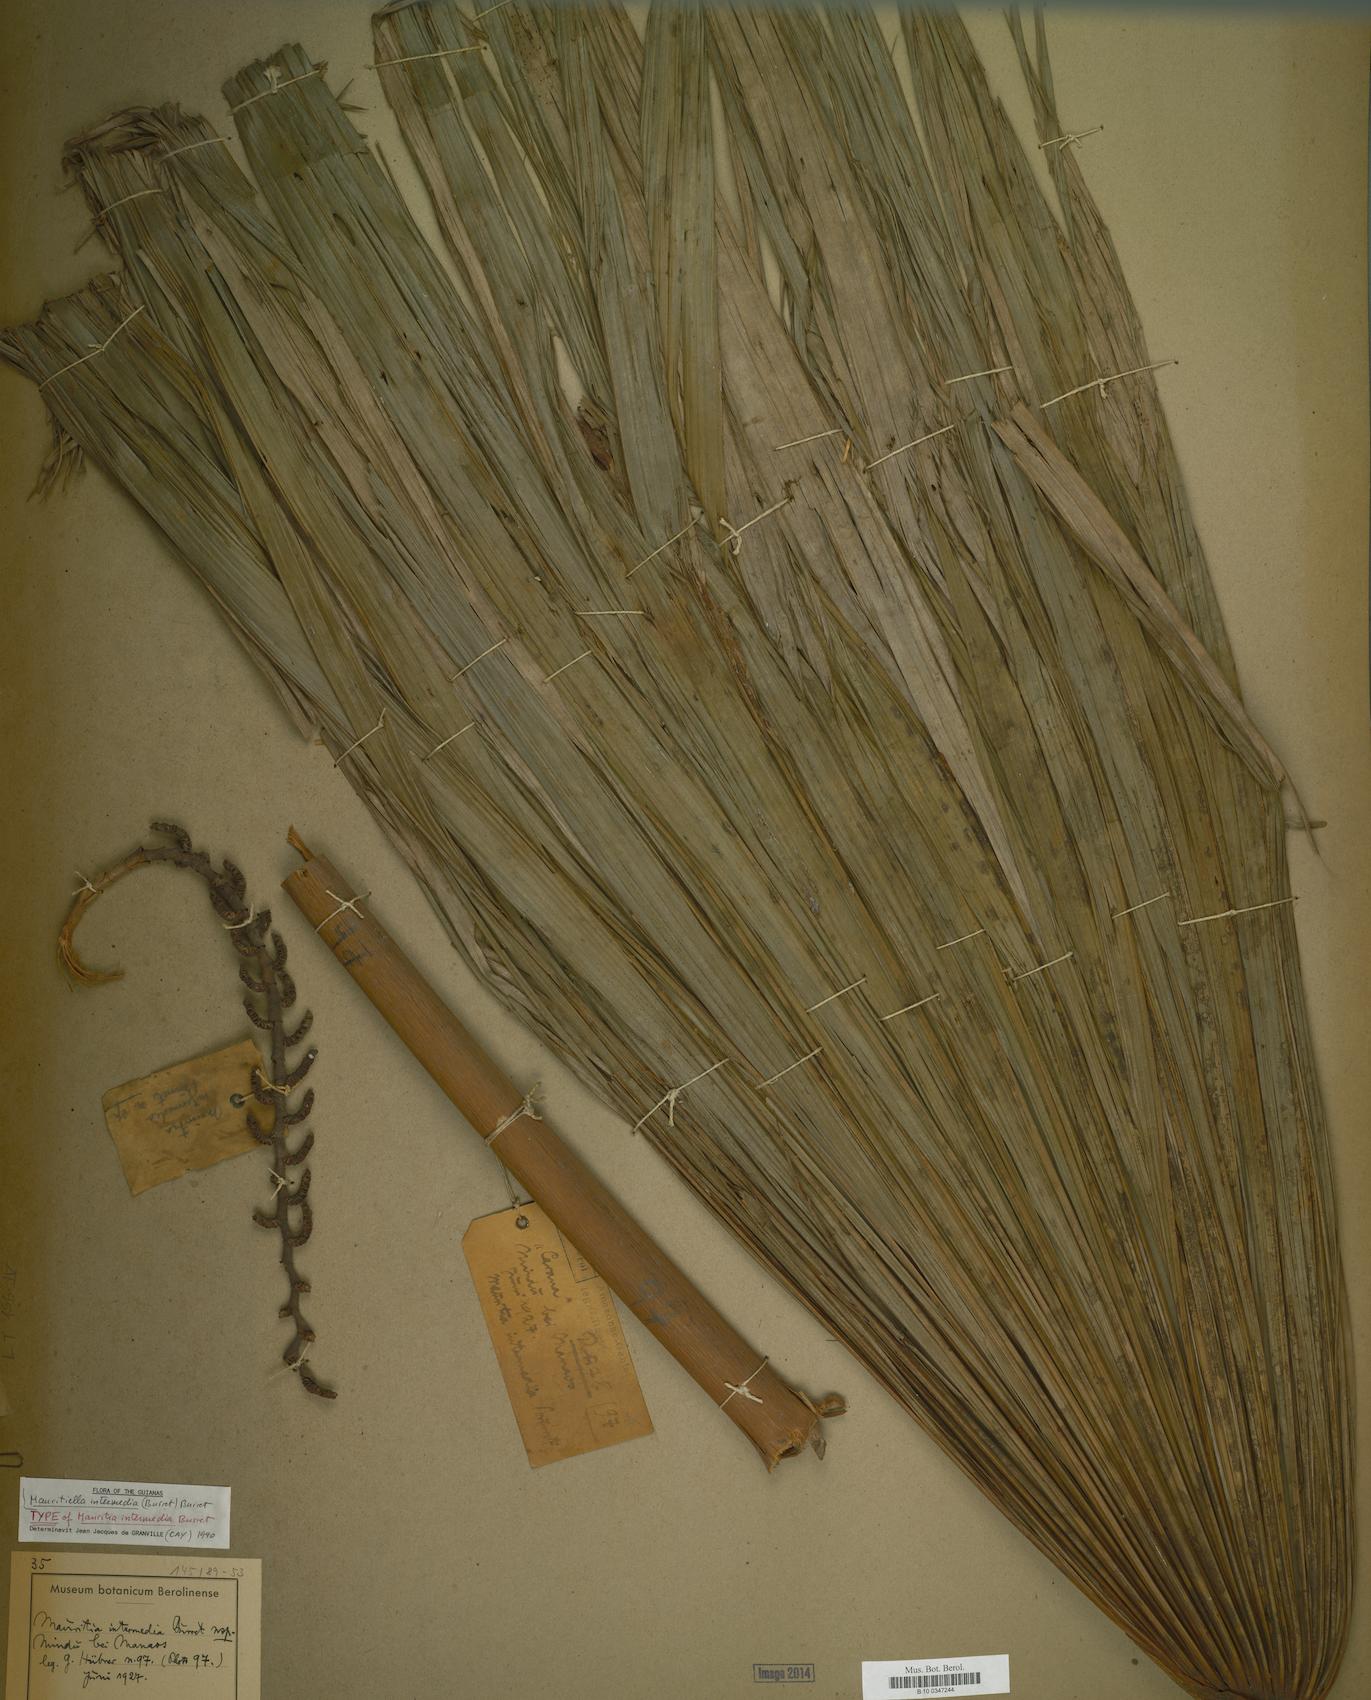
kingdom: Plantae
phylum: Tracheophyta
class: Liliopsida
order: Arecales
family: Arecaceae
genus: Mauritiella
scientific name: Mauritiella armata
